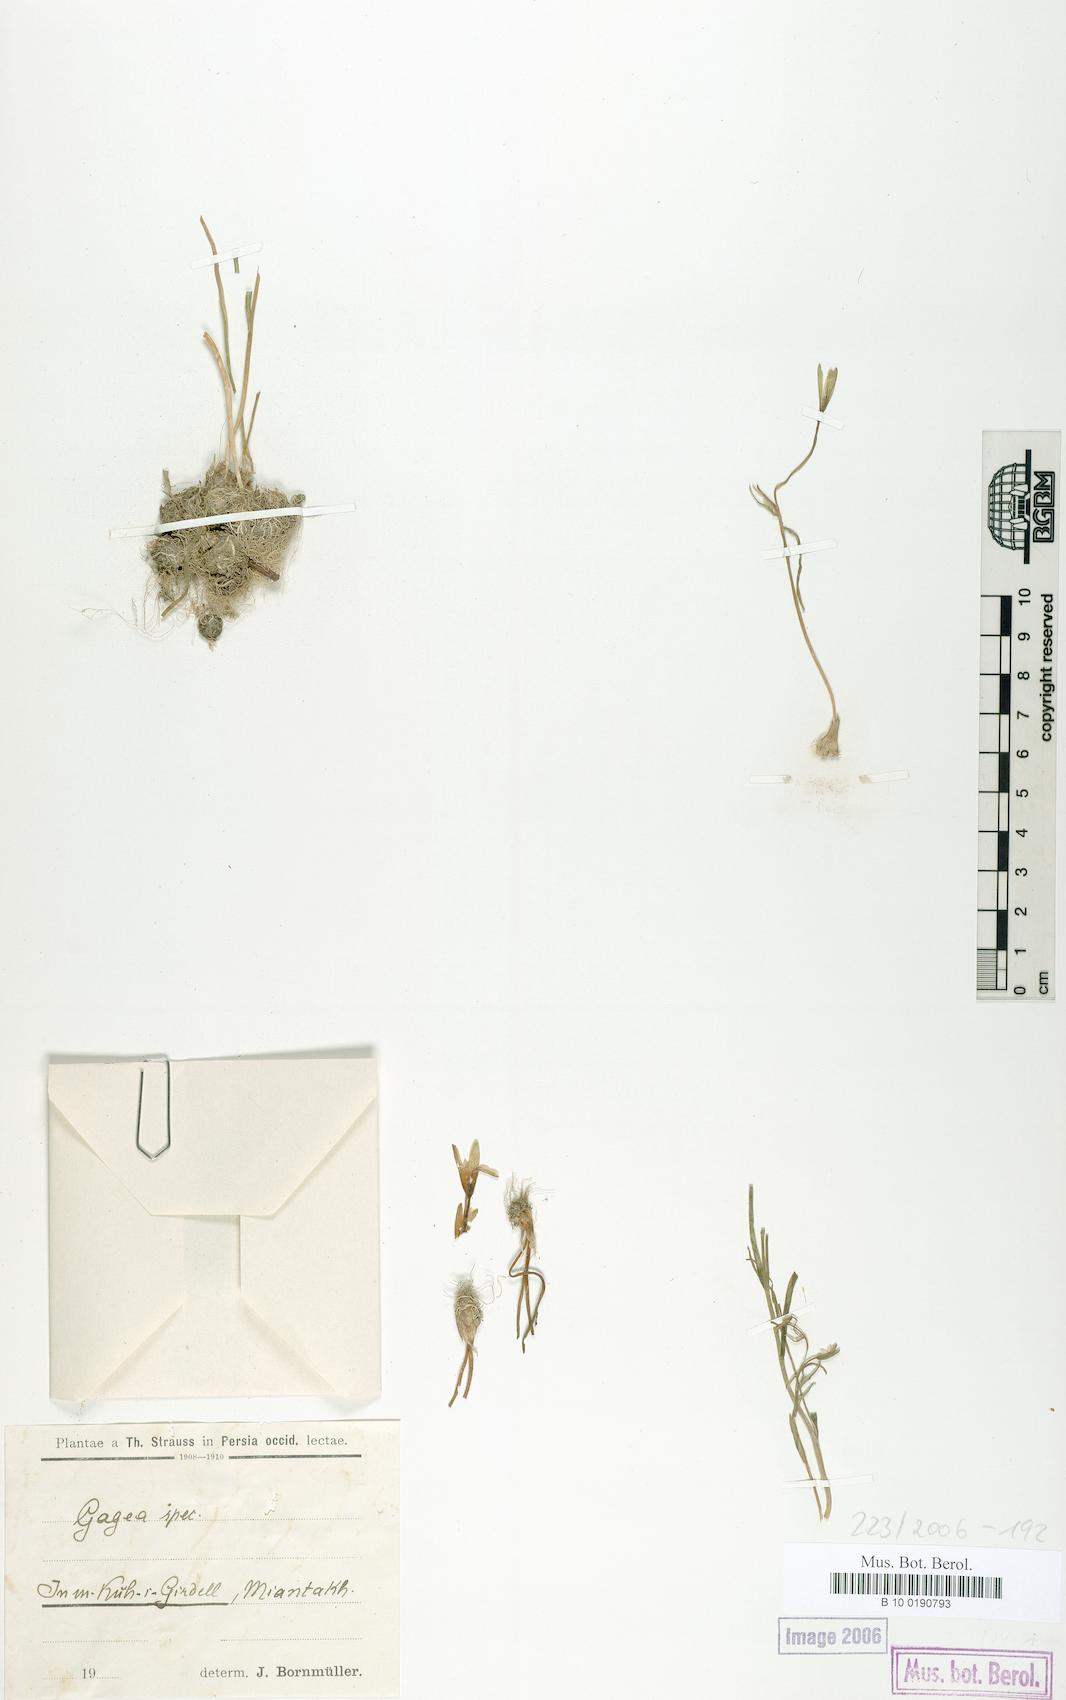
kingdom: Plantae
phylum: Tracheophyta
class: Liliopsida
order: Liliales
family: Liliaceae
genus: Gagea
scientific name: Gagea
